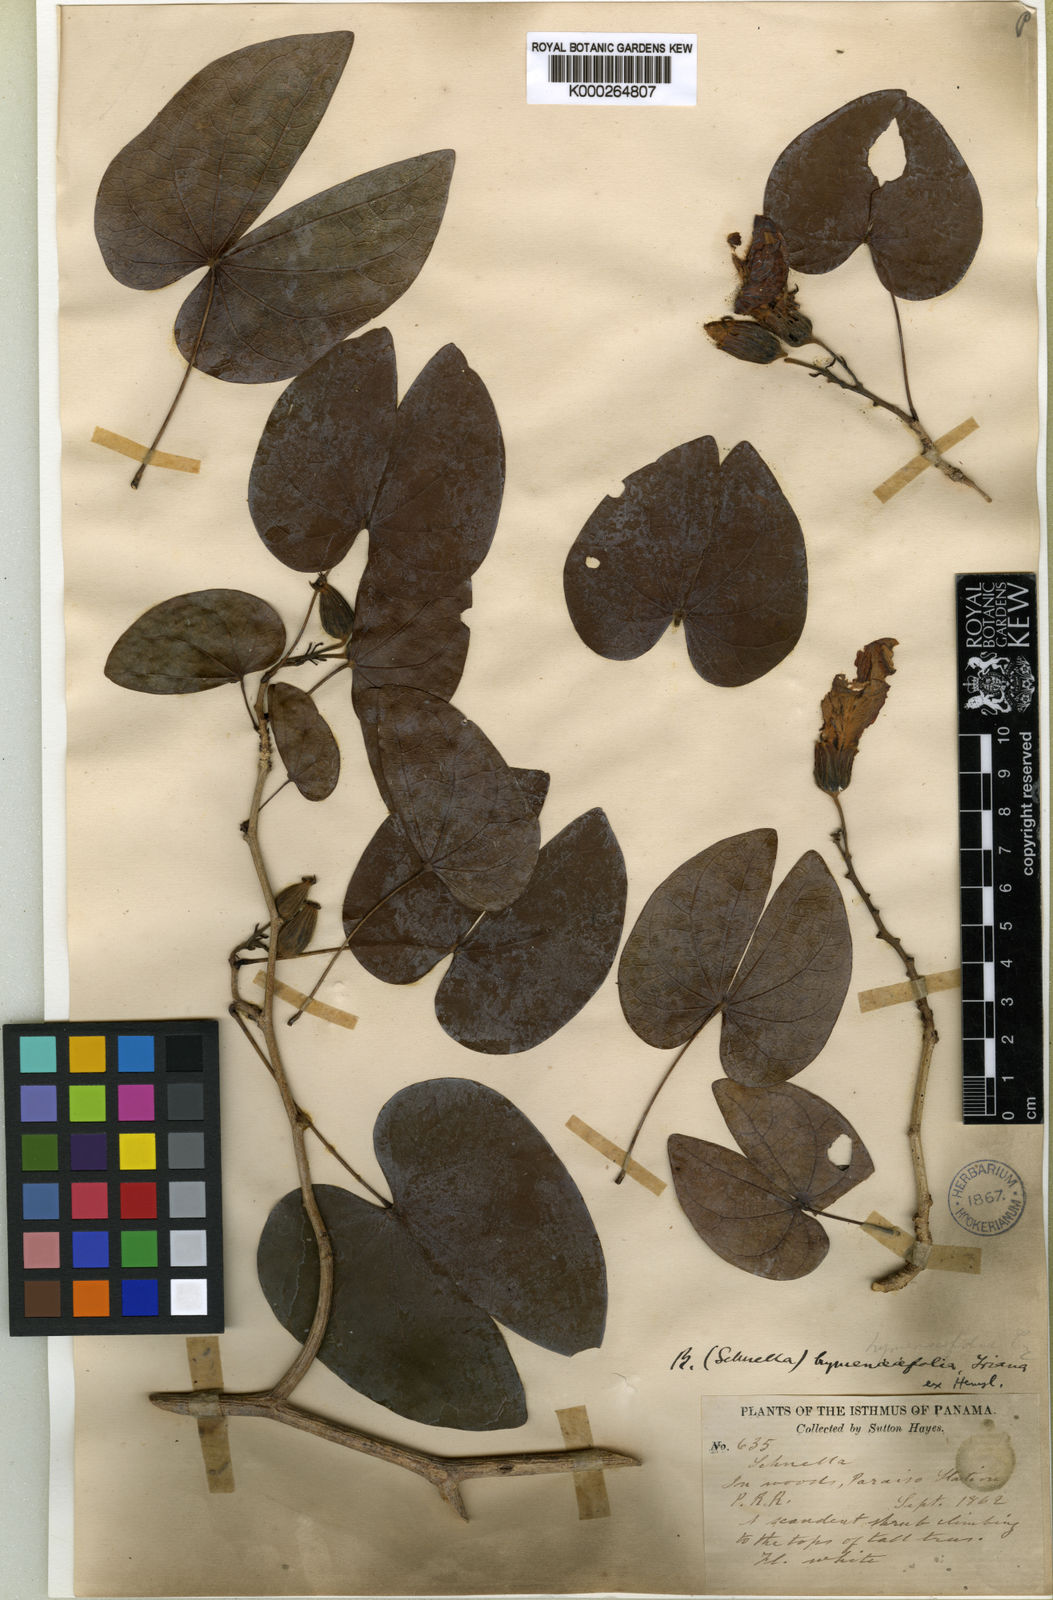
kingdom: Plantae
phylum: Tracheophyta
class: Magnoliopsida
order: Fabales
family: Fabaceae
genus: Schnella
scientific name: Schnella hymenaeifolia
